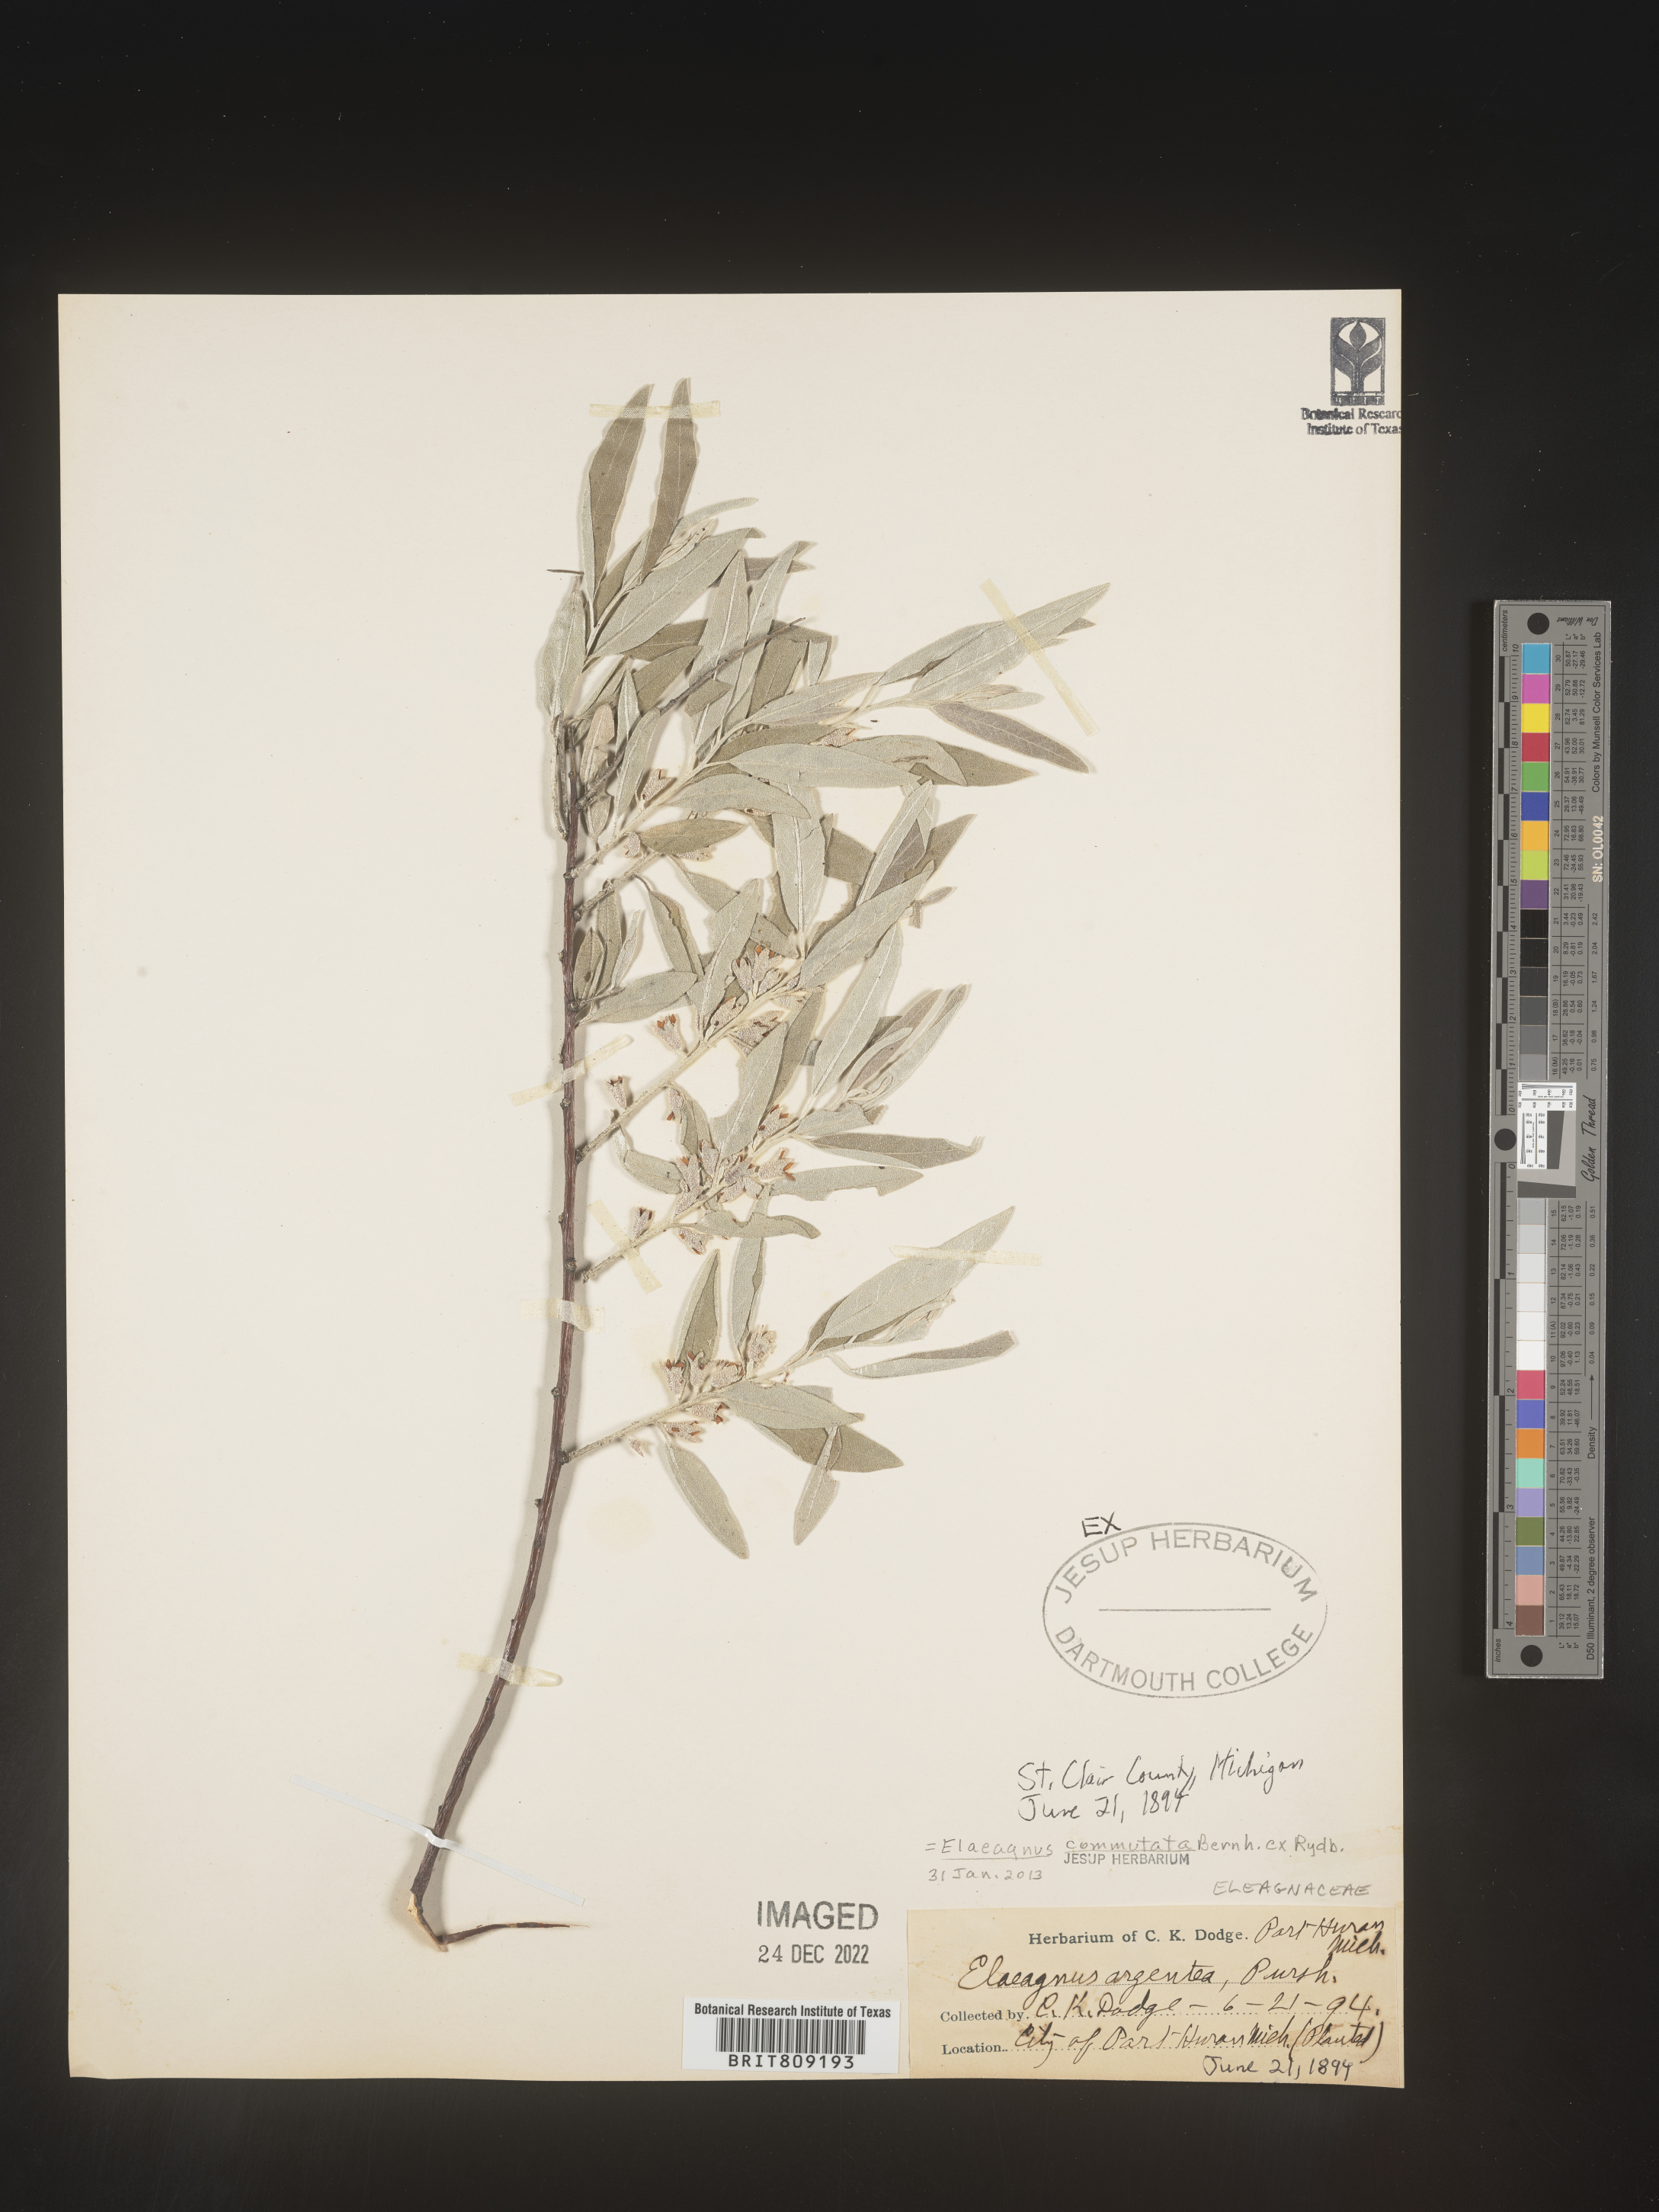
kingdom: Plantae
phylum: Tracheophyta
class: Magnoliopsida
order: Rosales
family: Elaeagnaceae
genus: Elaeagnus
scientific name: Elaeagnus
